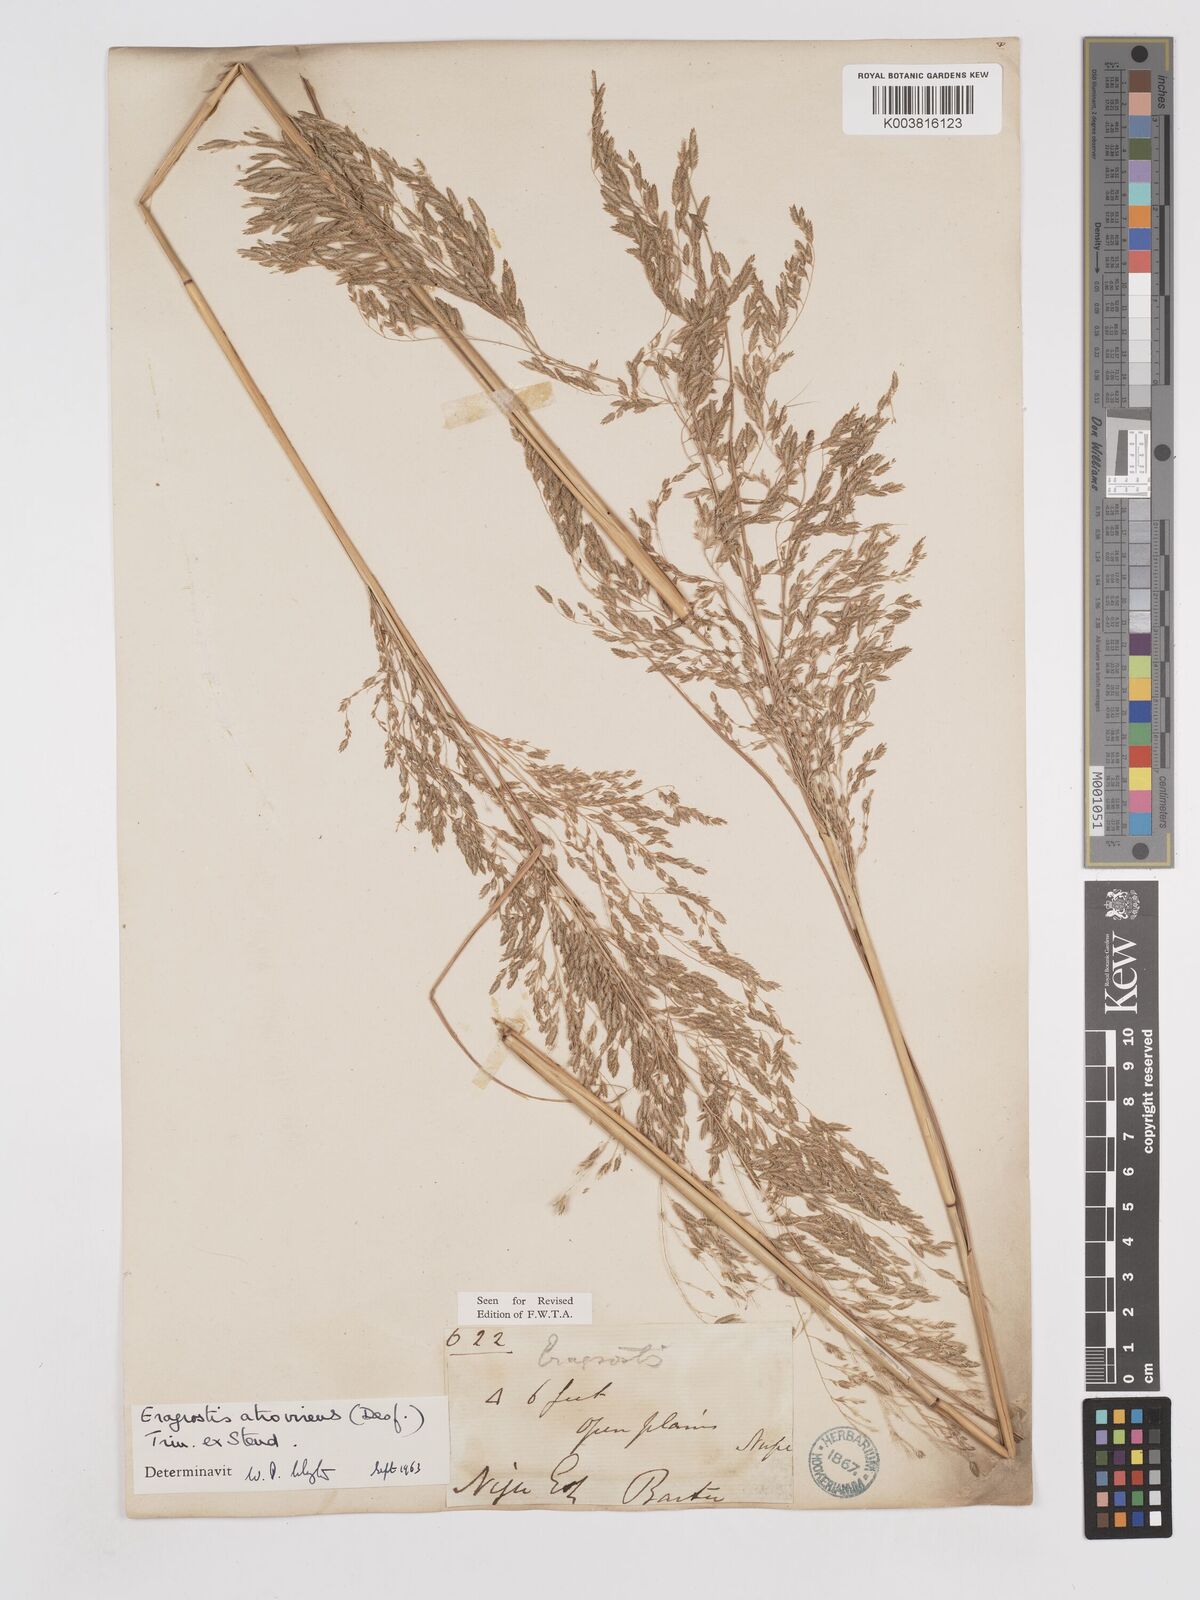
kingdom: Plantae
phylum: Tracheophyta
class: Liliopsida
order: Poales
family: Poaceae
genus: Eragrostis
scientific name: Eragrostis atrovirens
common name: Thalia lovegrass
